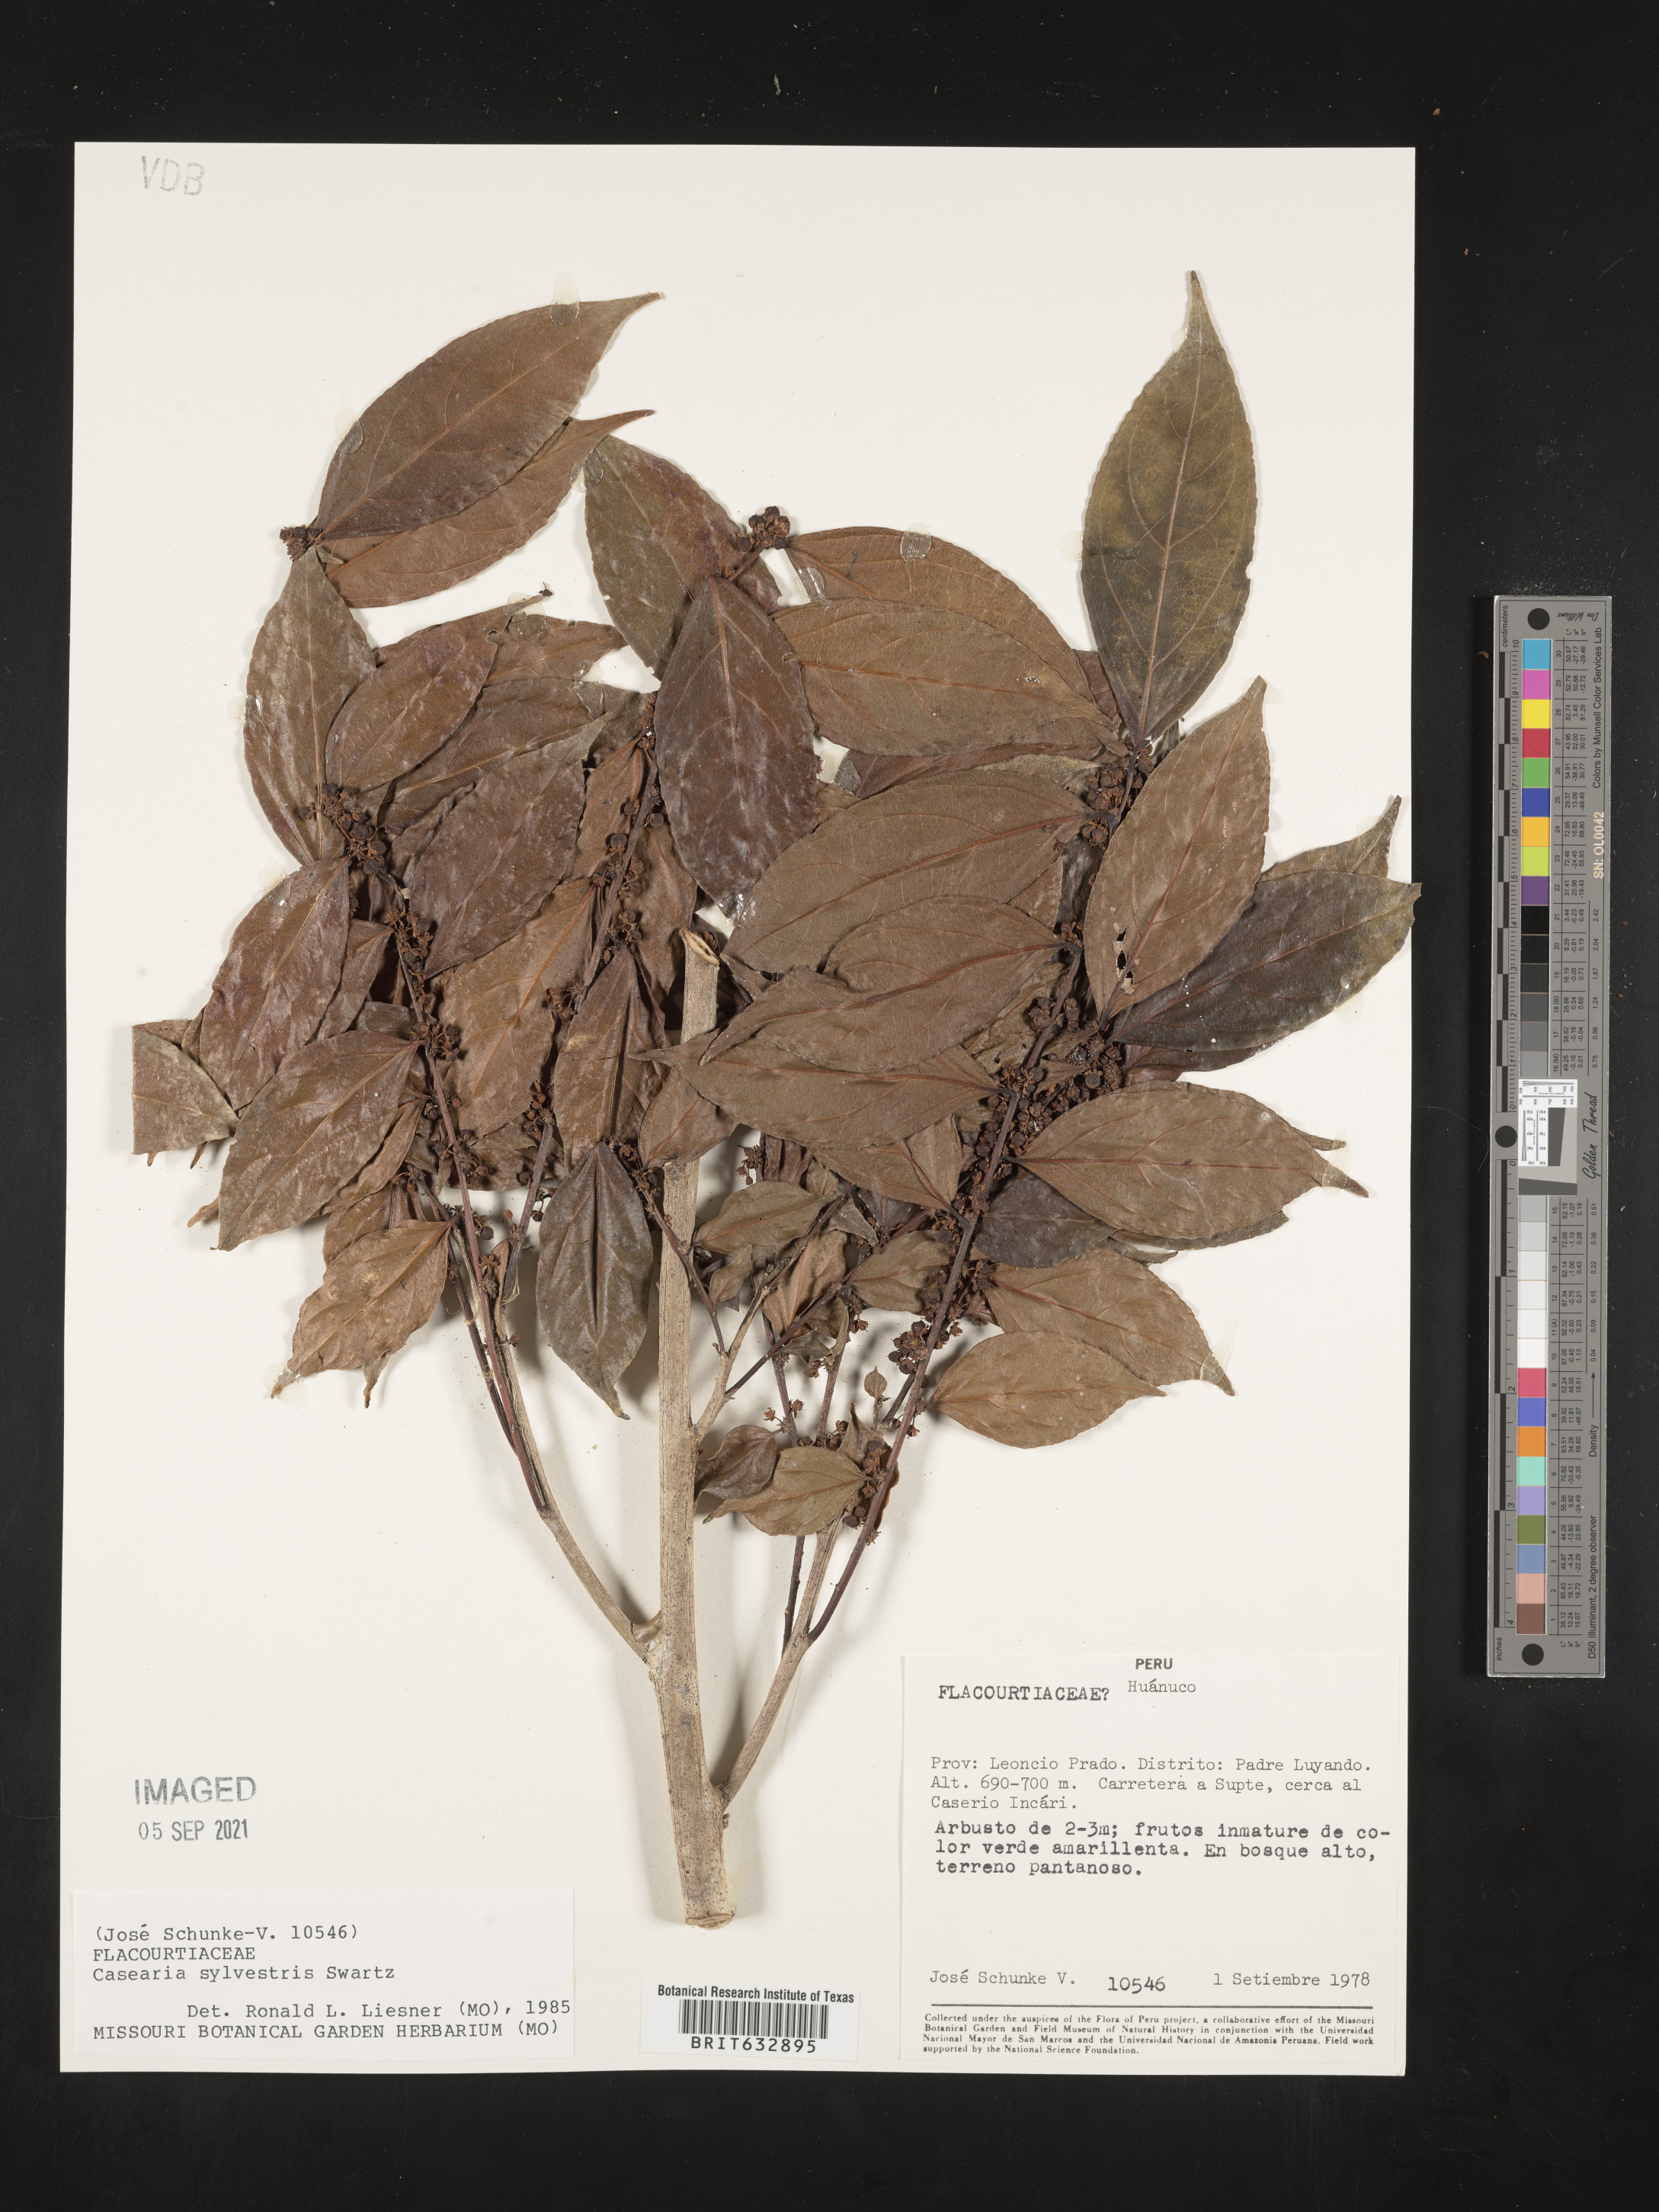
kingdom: Plantae
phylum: Tracheophyta
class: Magnoliopsida
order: Malpighiales
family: Salicaceae
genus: Casearia
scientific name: Casearia
